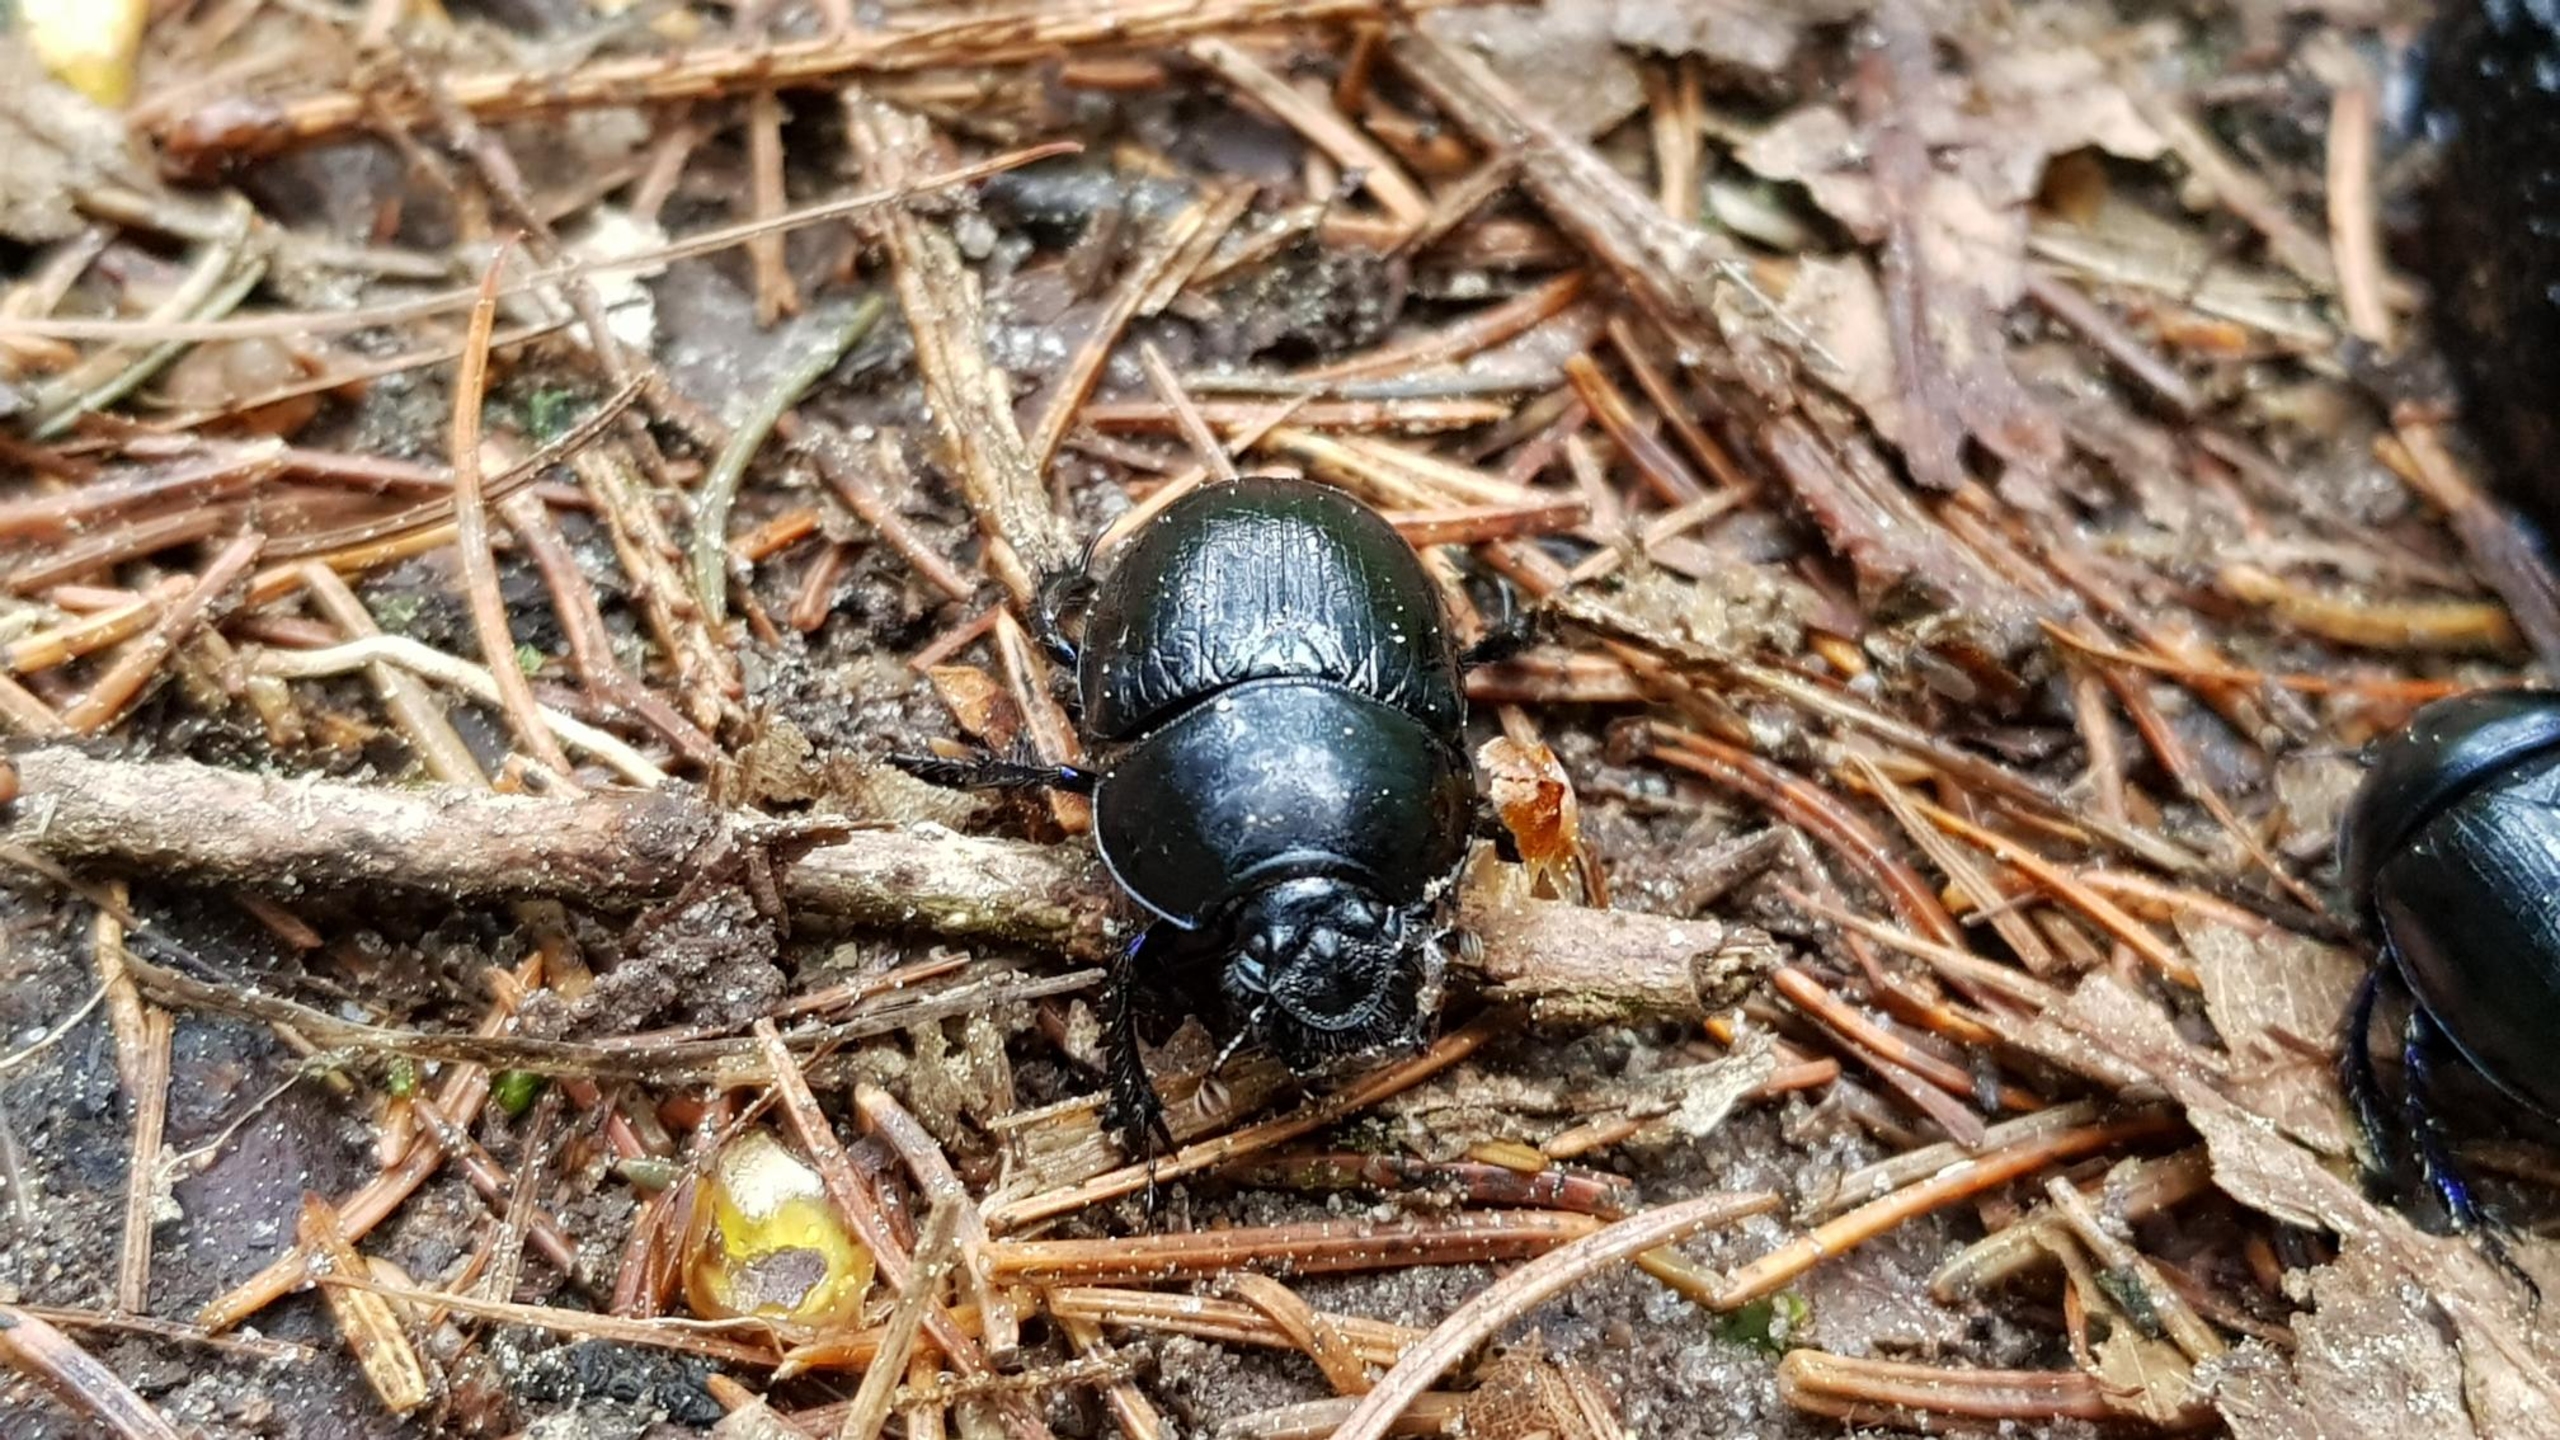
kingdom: Animalia
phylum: Arthropoda
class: Insecta
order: Coleoptera
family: Geotrupidae
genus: Anoplotrupes
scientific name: Anoplotrupes stercorosus
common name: Skovskarnbasse
